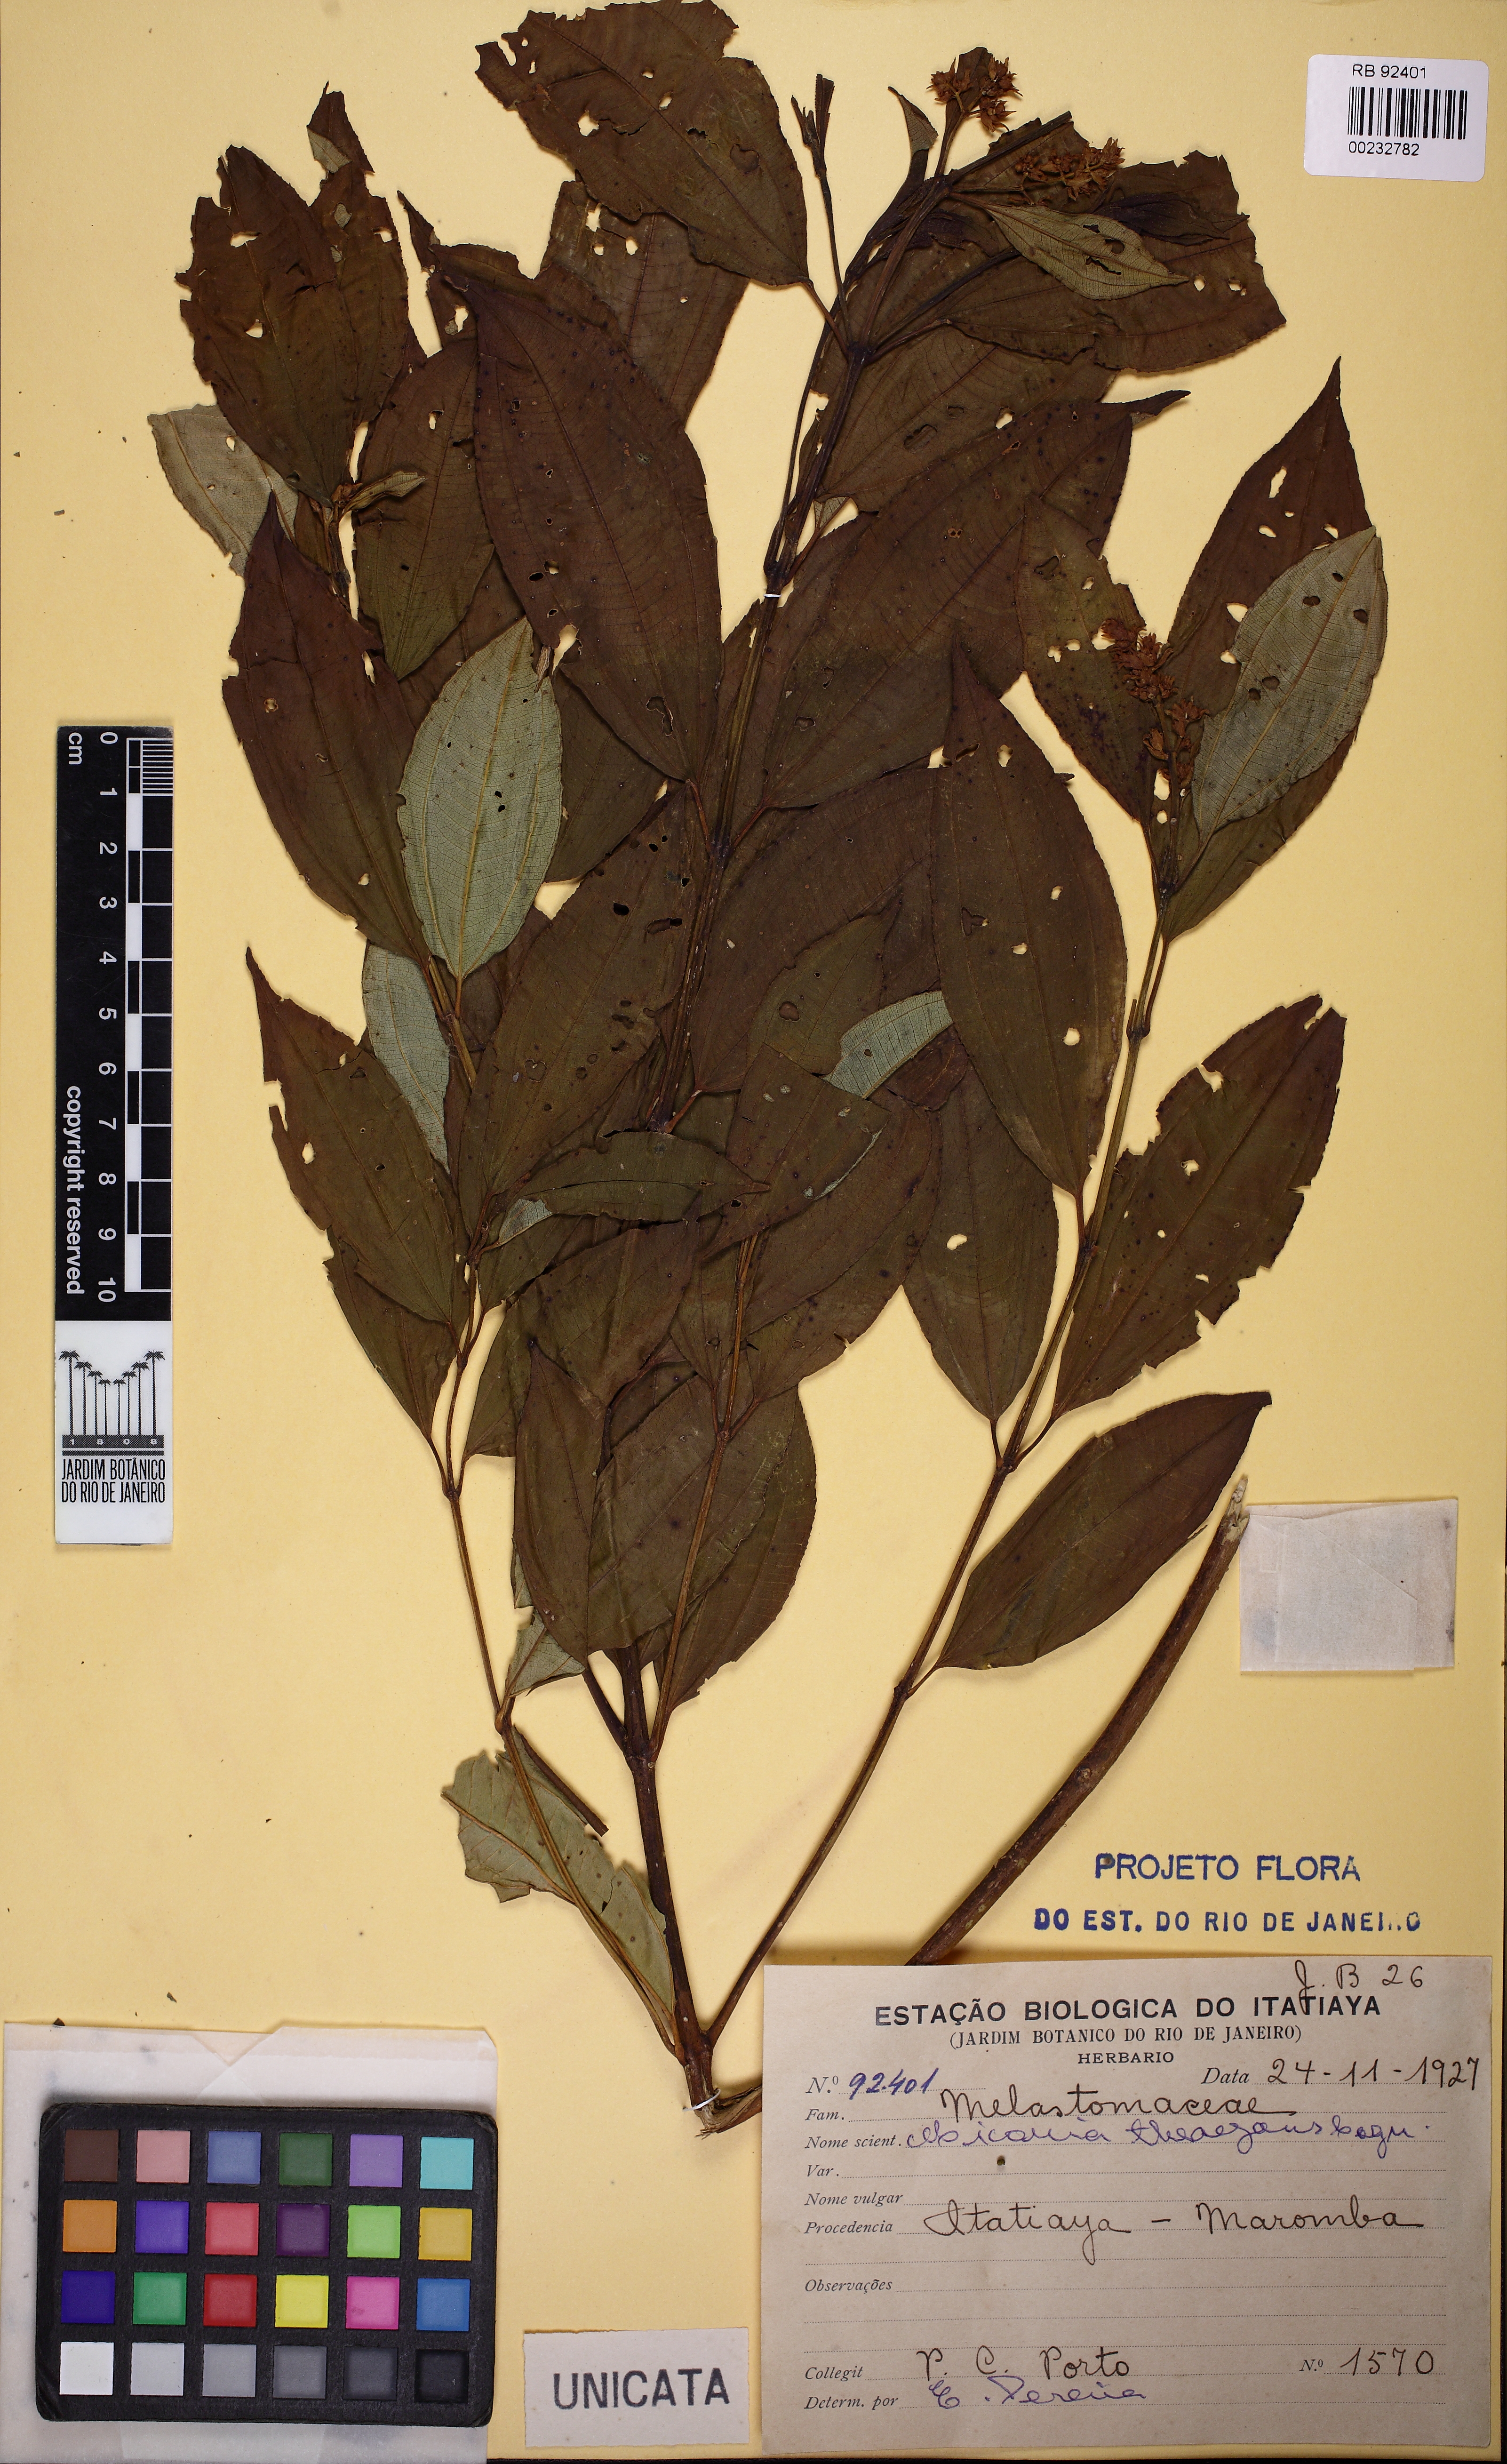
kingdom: Plantae
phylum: Tracheophyta
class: Magnoliopsida
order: Myrtales
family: Melastomataceae
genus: Miconia
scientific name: Miconia theizans
